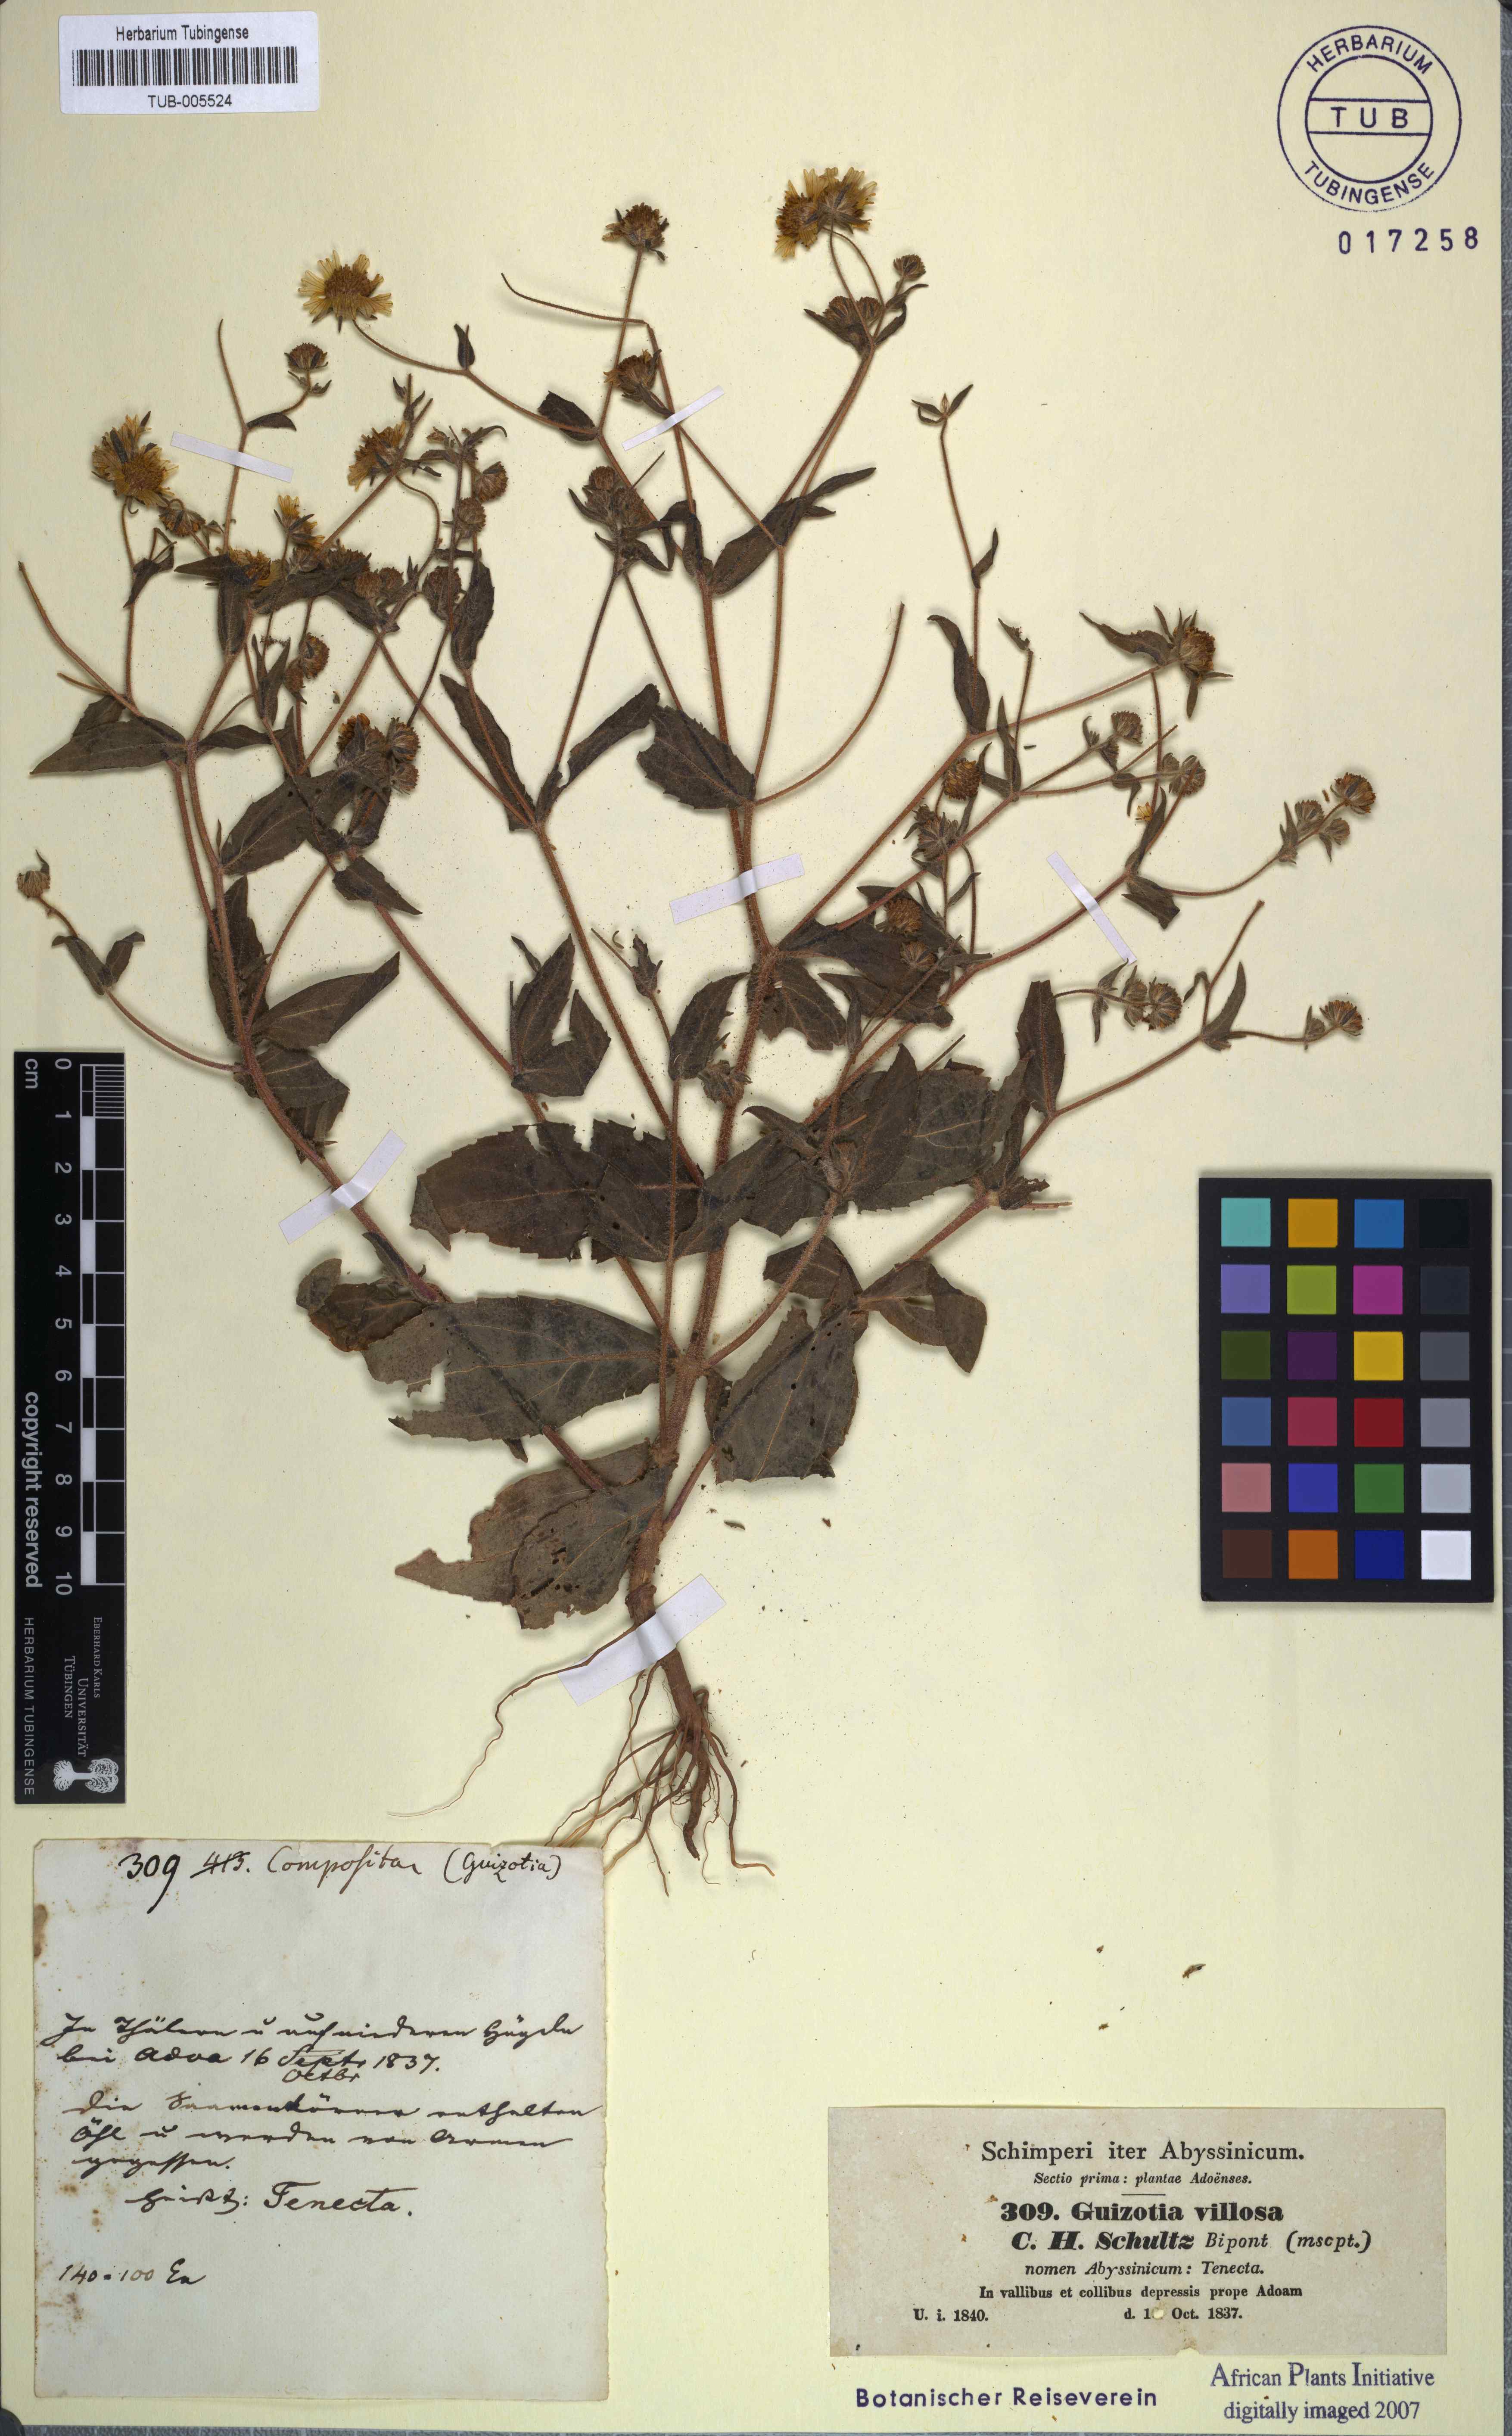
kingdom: Plantae
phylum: Tracheophyta
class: Magnoliopsida
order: Asterales
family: Asteraceae
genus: Guizotia
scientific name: Guizotia villosa
